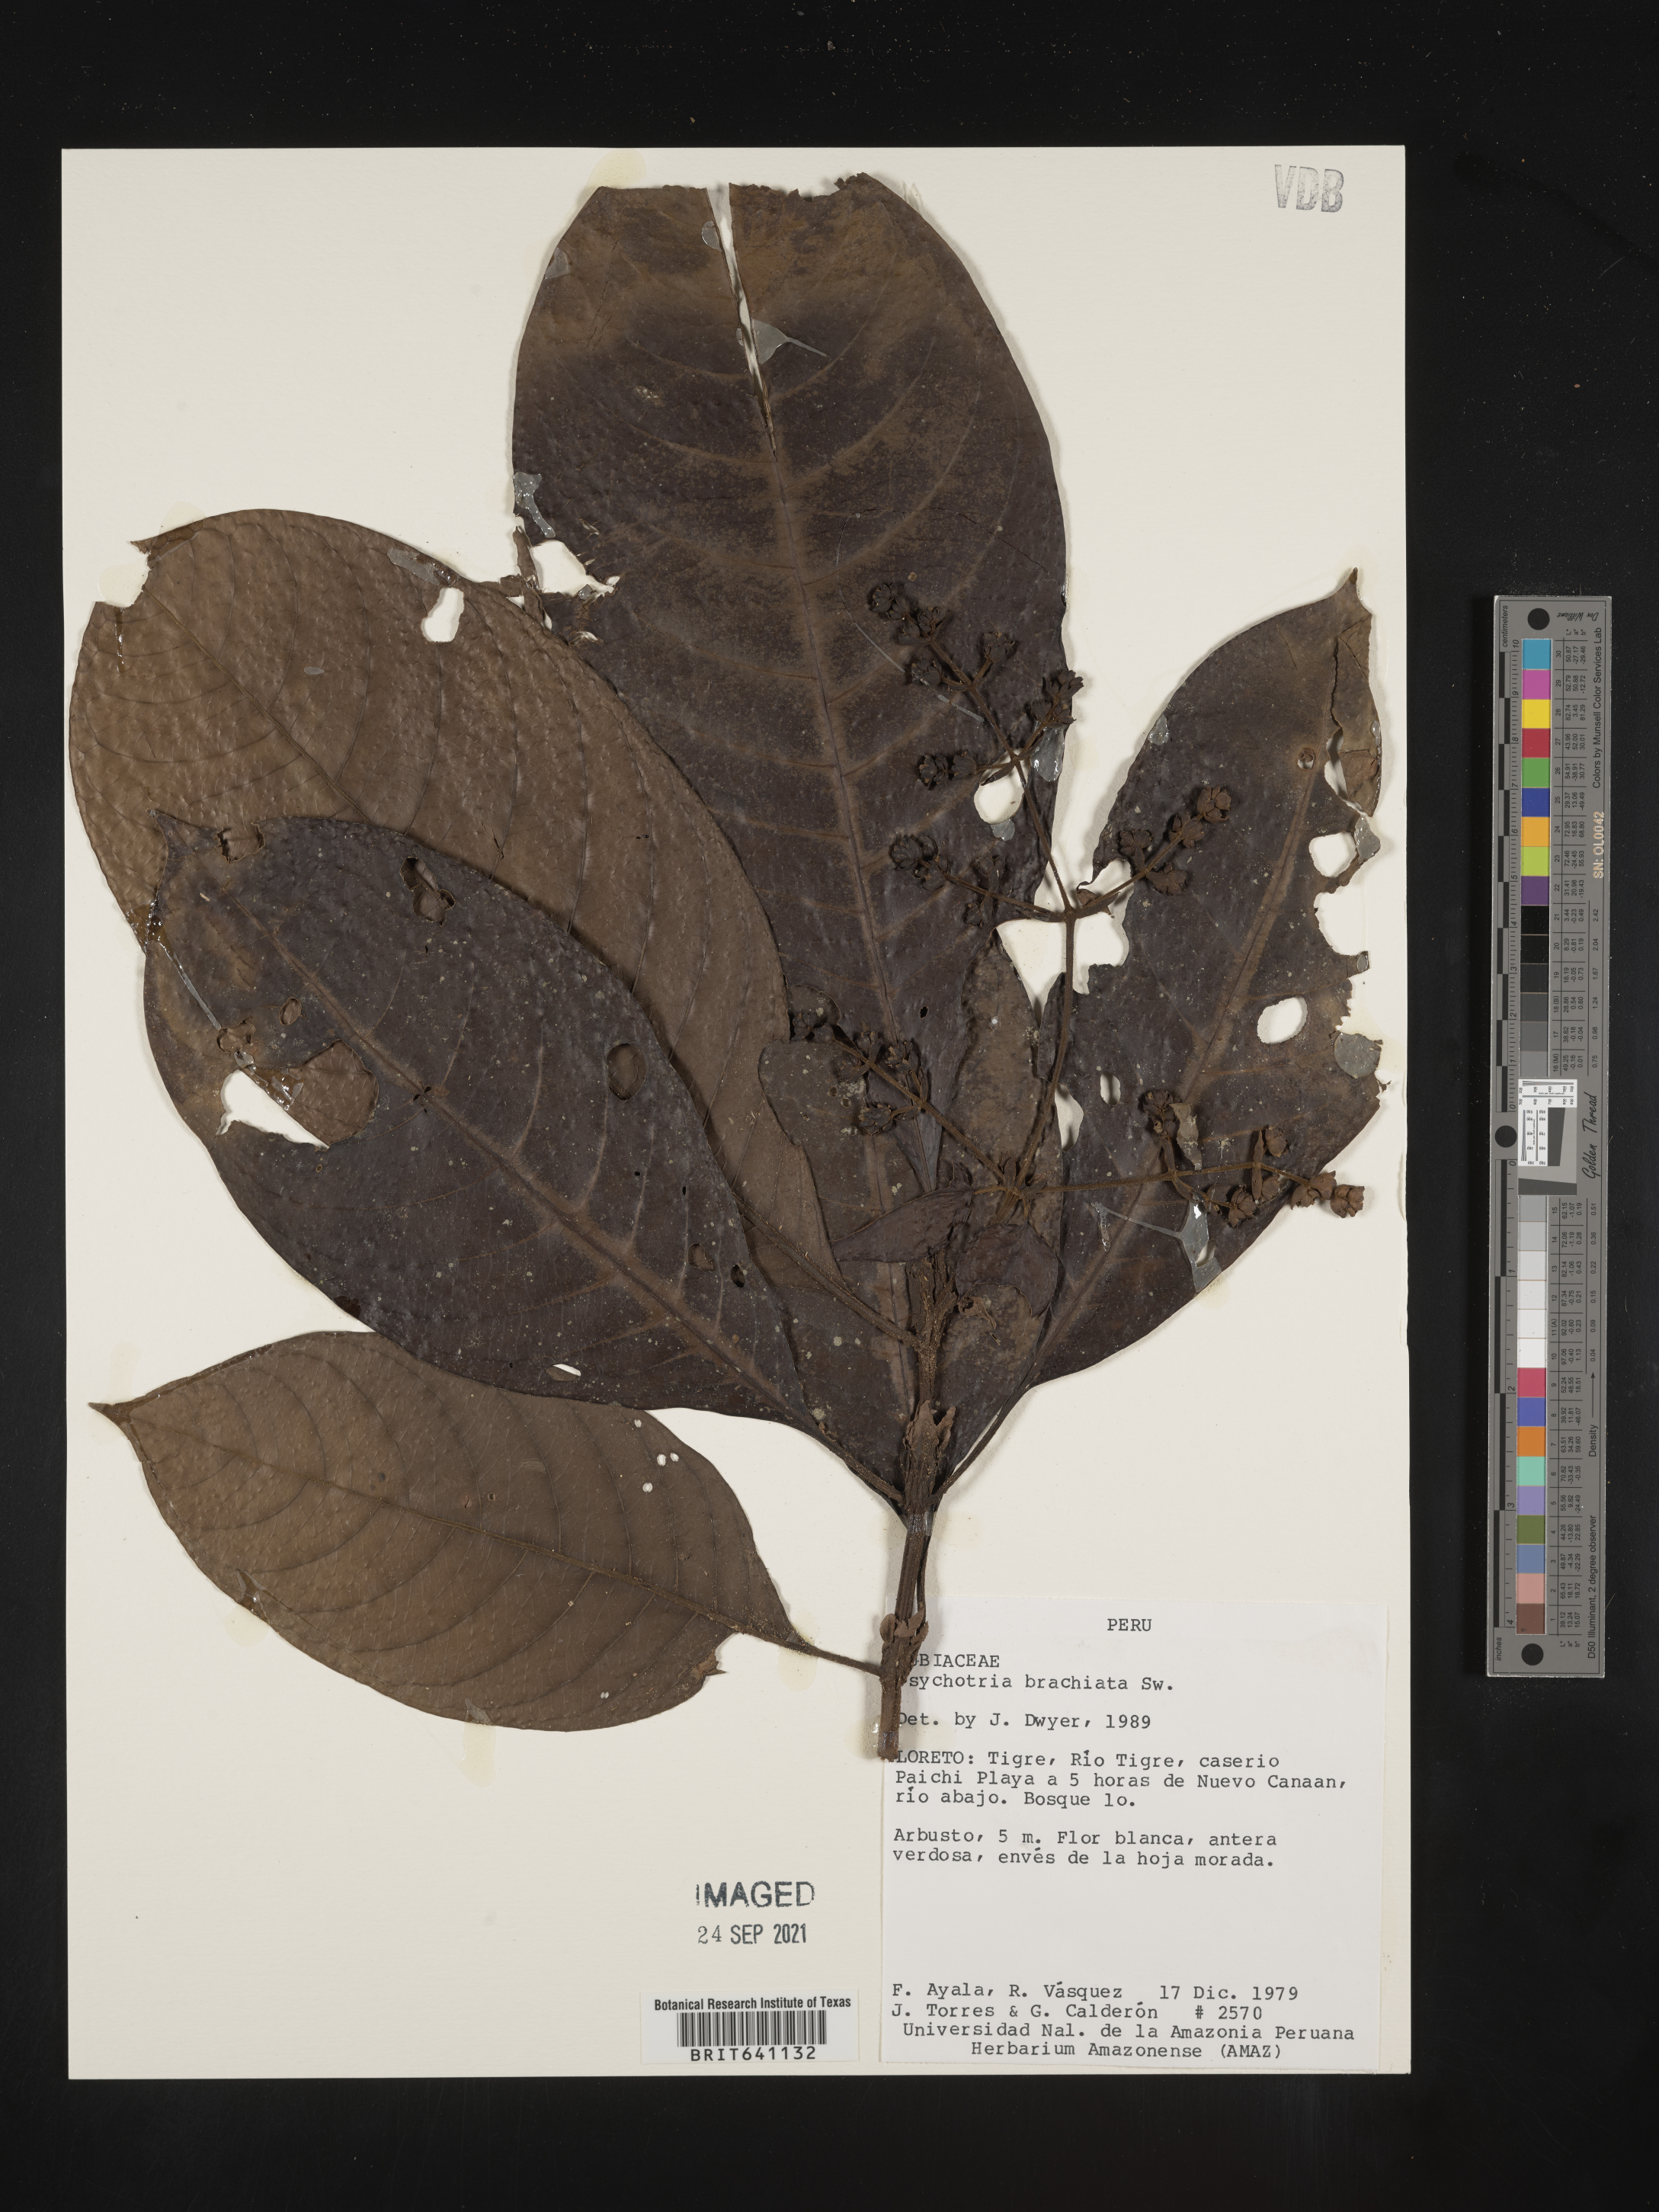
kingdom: Plantae
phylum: Tracheophyta
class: Magnoliopsida
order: Gentianales
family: Rubiaceae
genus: Psychotria
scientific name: Psychotria
